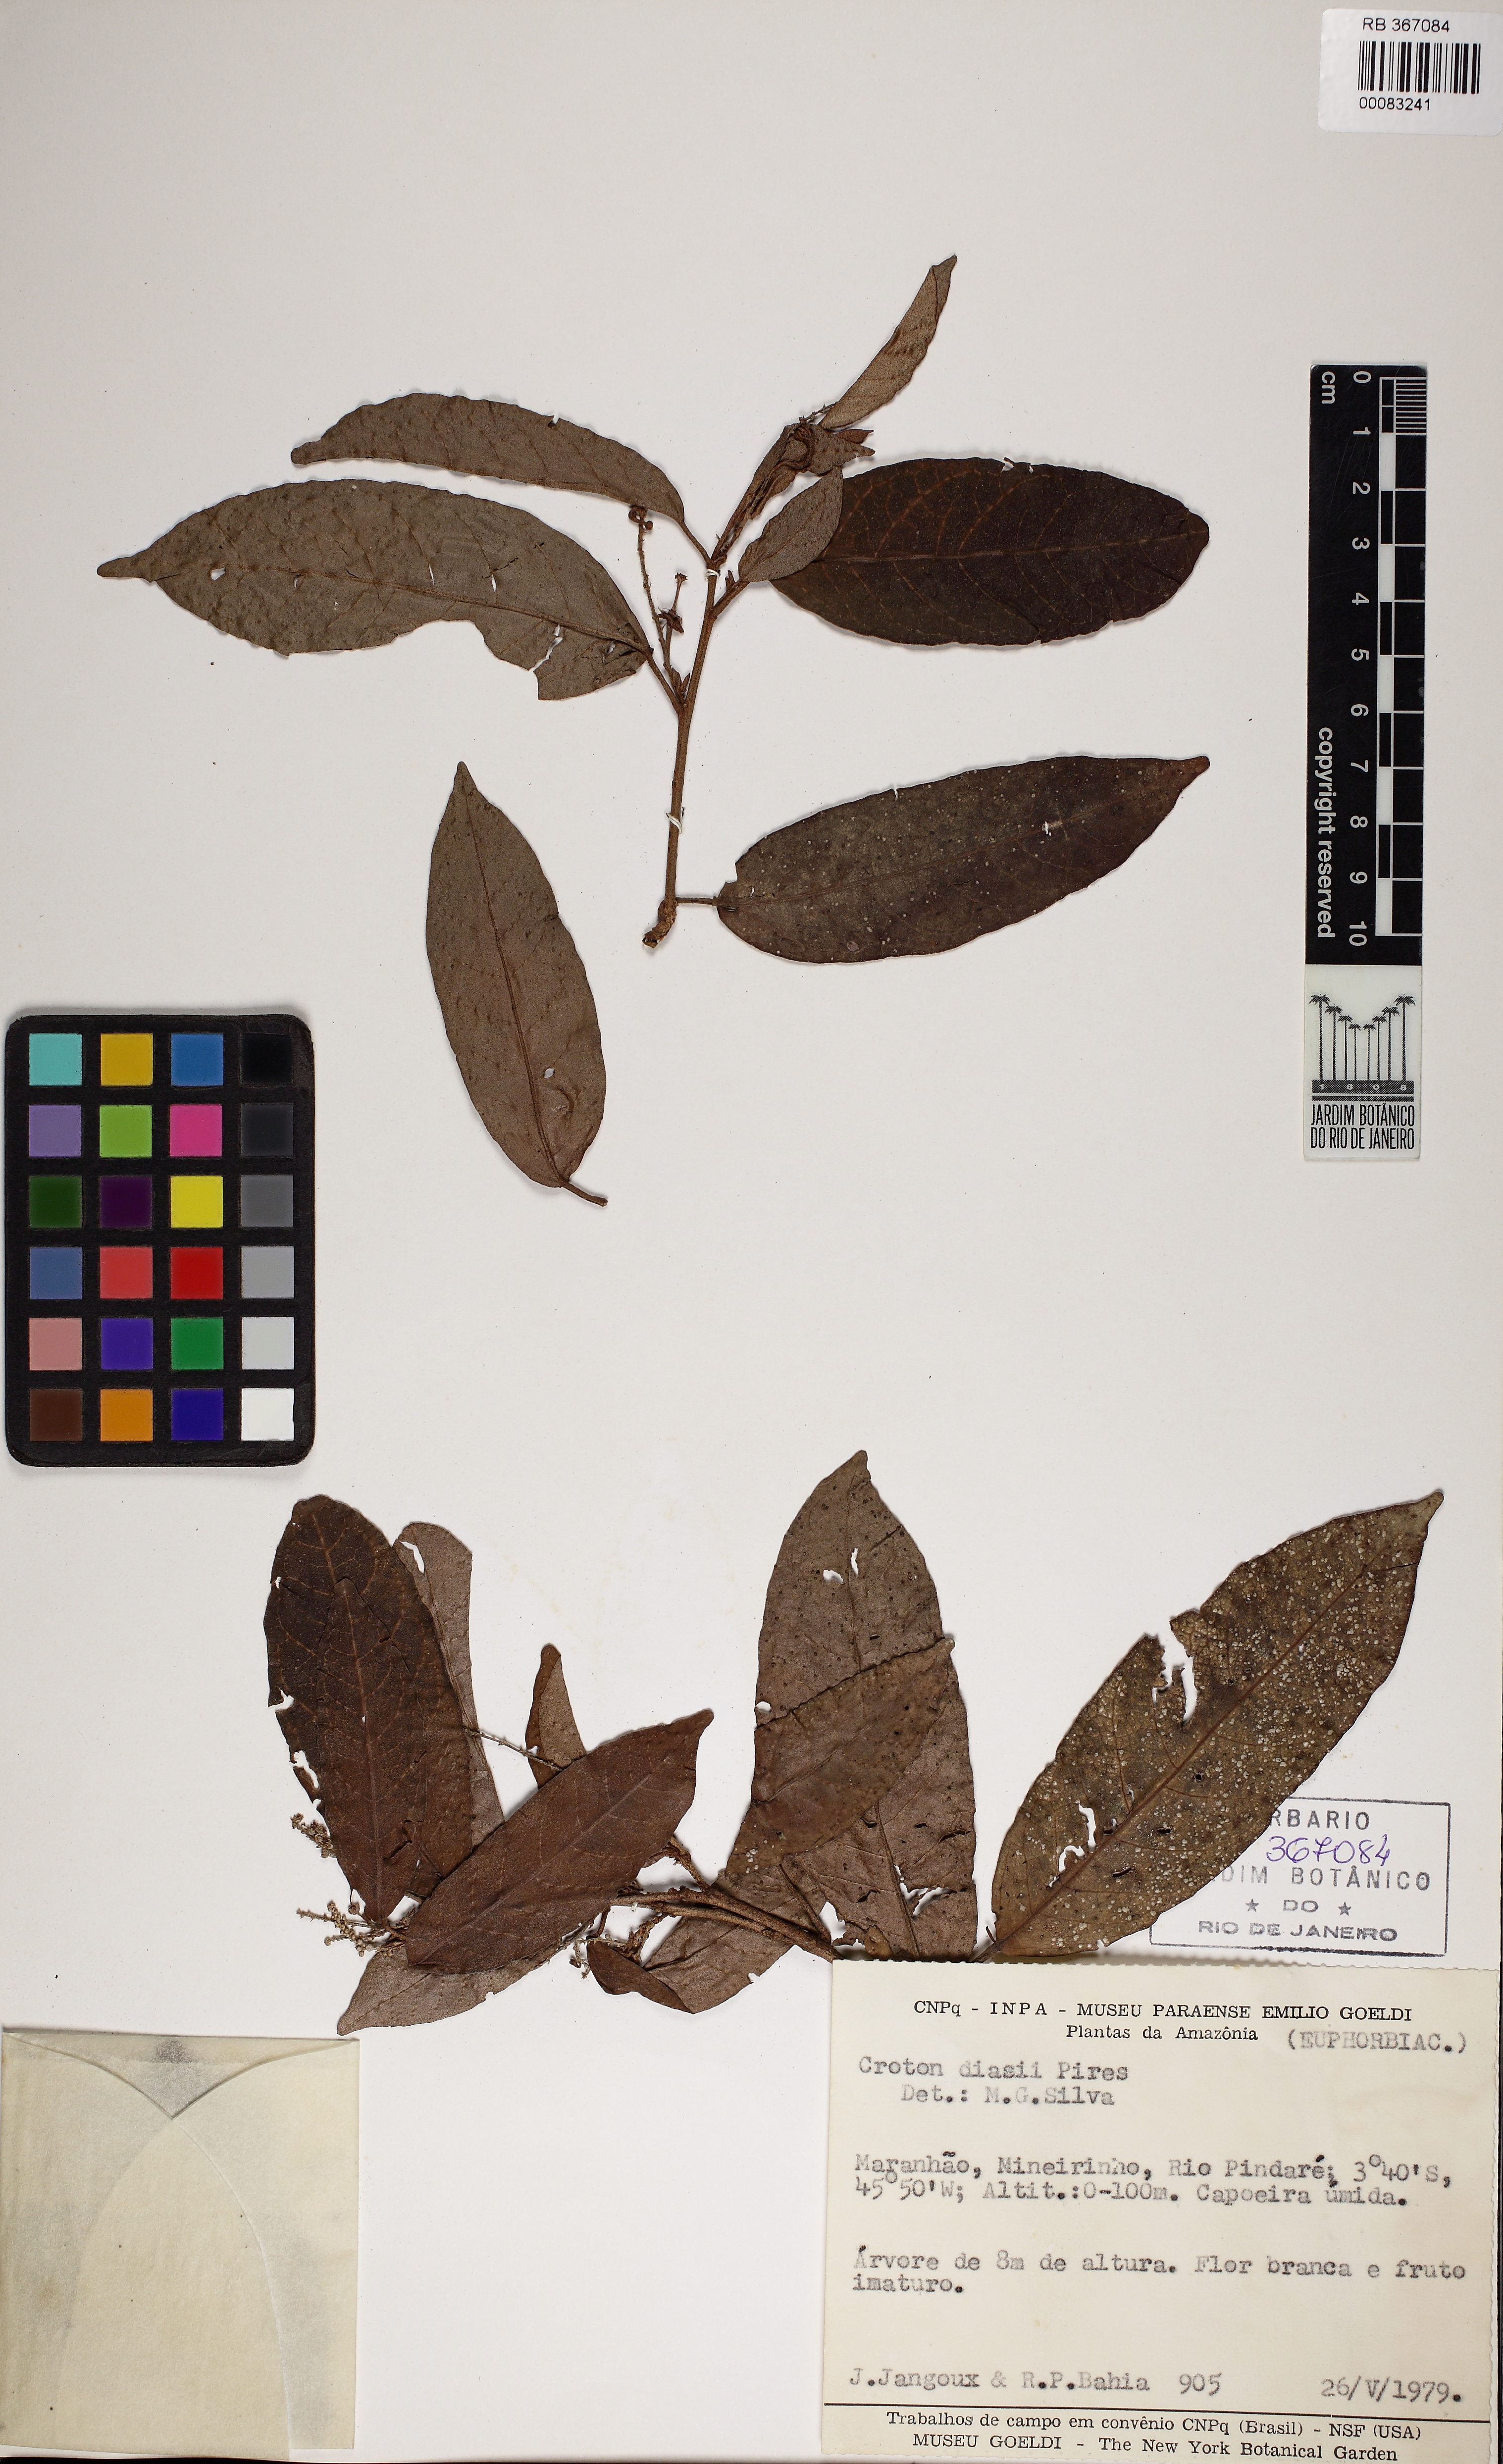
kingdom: Plantae
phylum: Tracheophyta
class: Magnoliopsida
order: Malpighiales
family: Euphorbiaceae
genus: Croton
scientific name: Croton diasii
